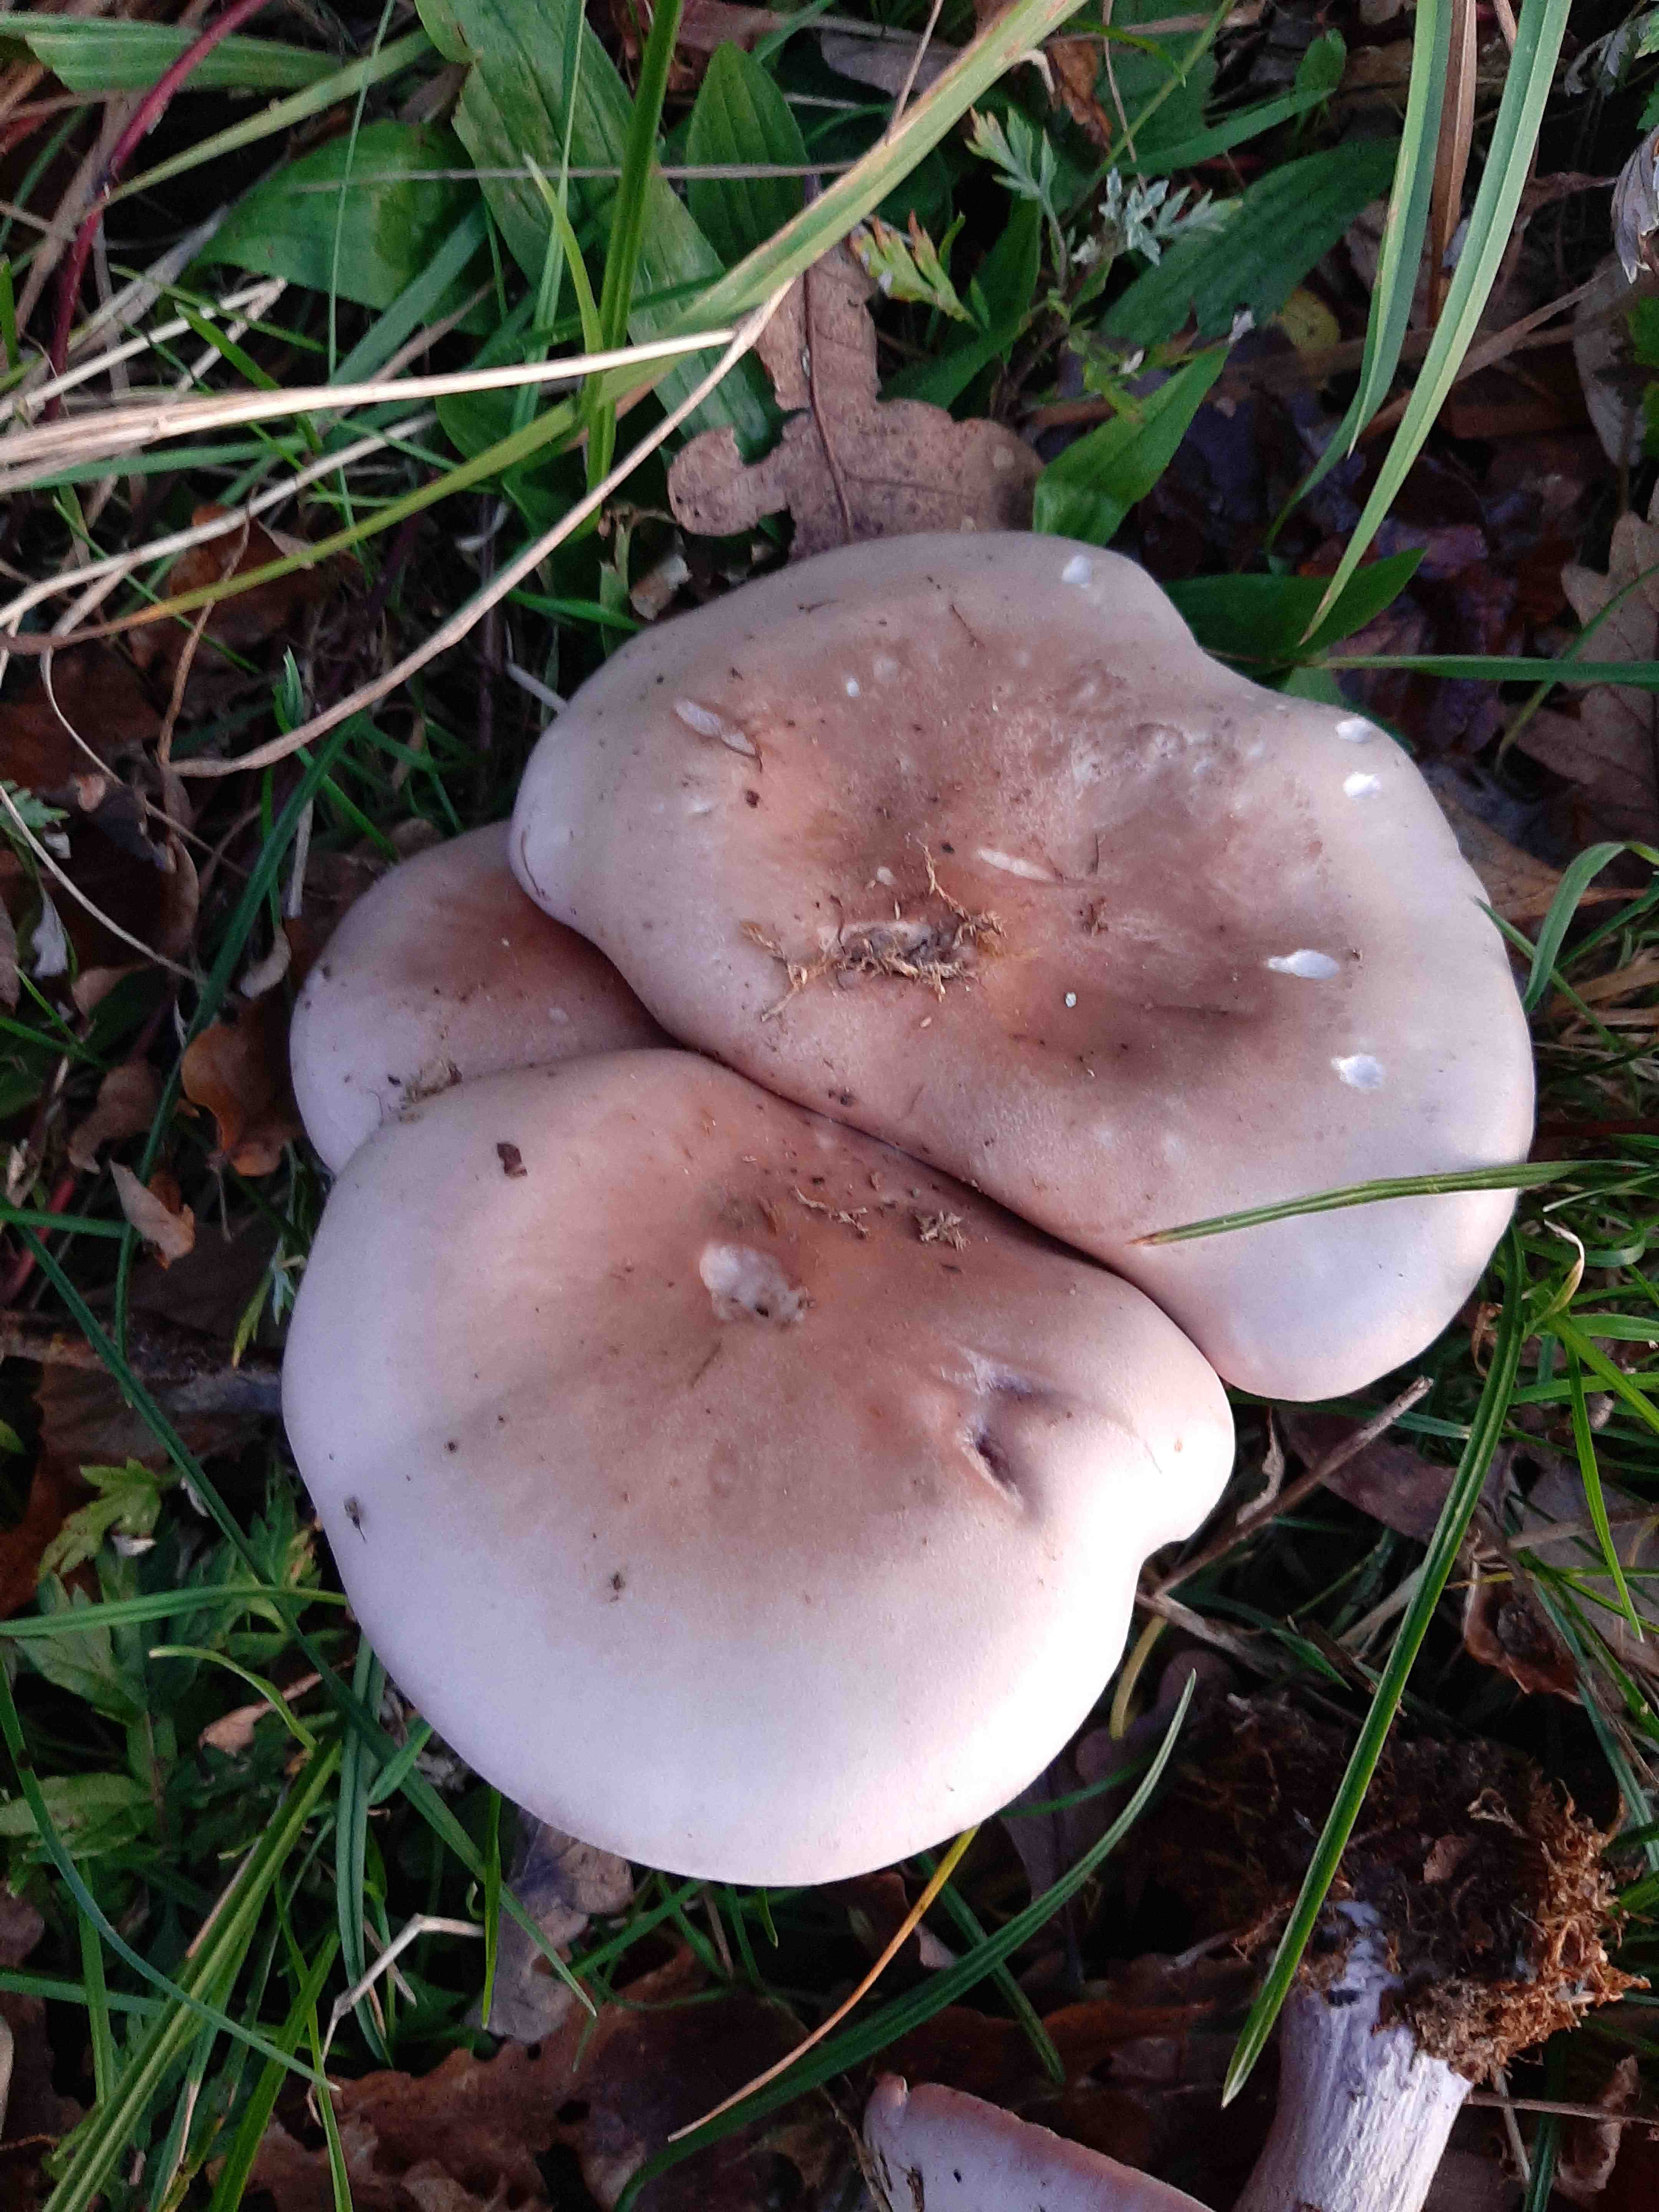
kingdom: Fungi
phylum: Basidiomycota
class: Agaricomycetes
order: Agaricales
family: Tricholomataceae
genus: Lepista
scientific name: Lepista nuda
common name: violet hekseringshat
